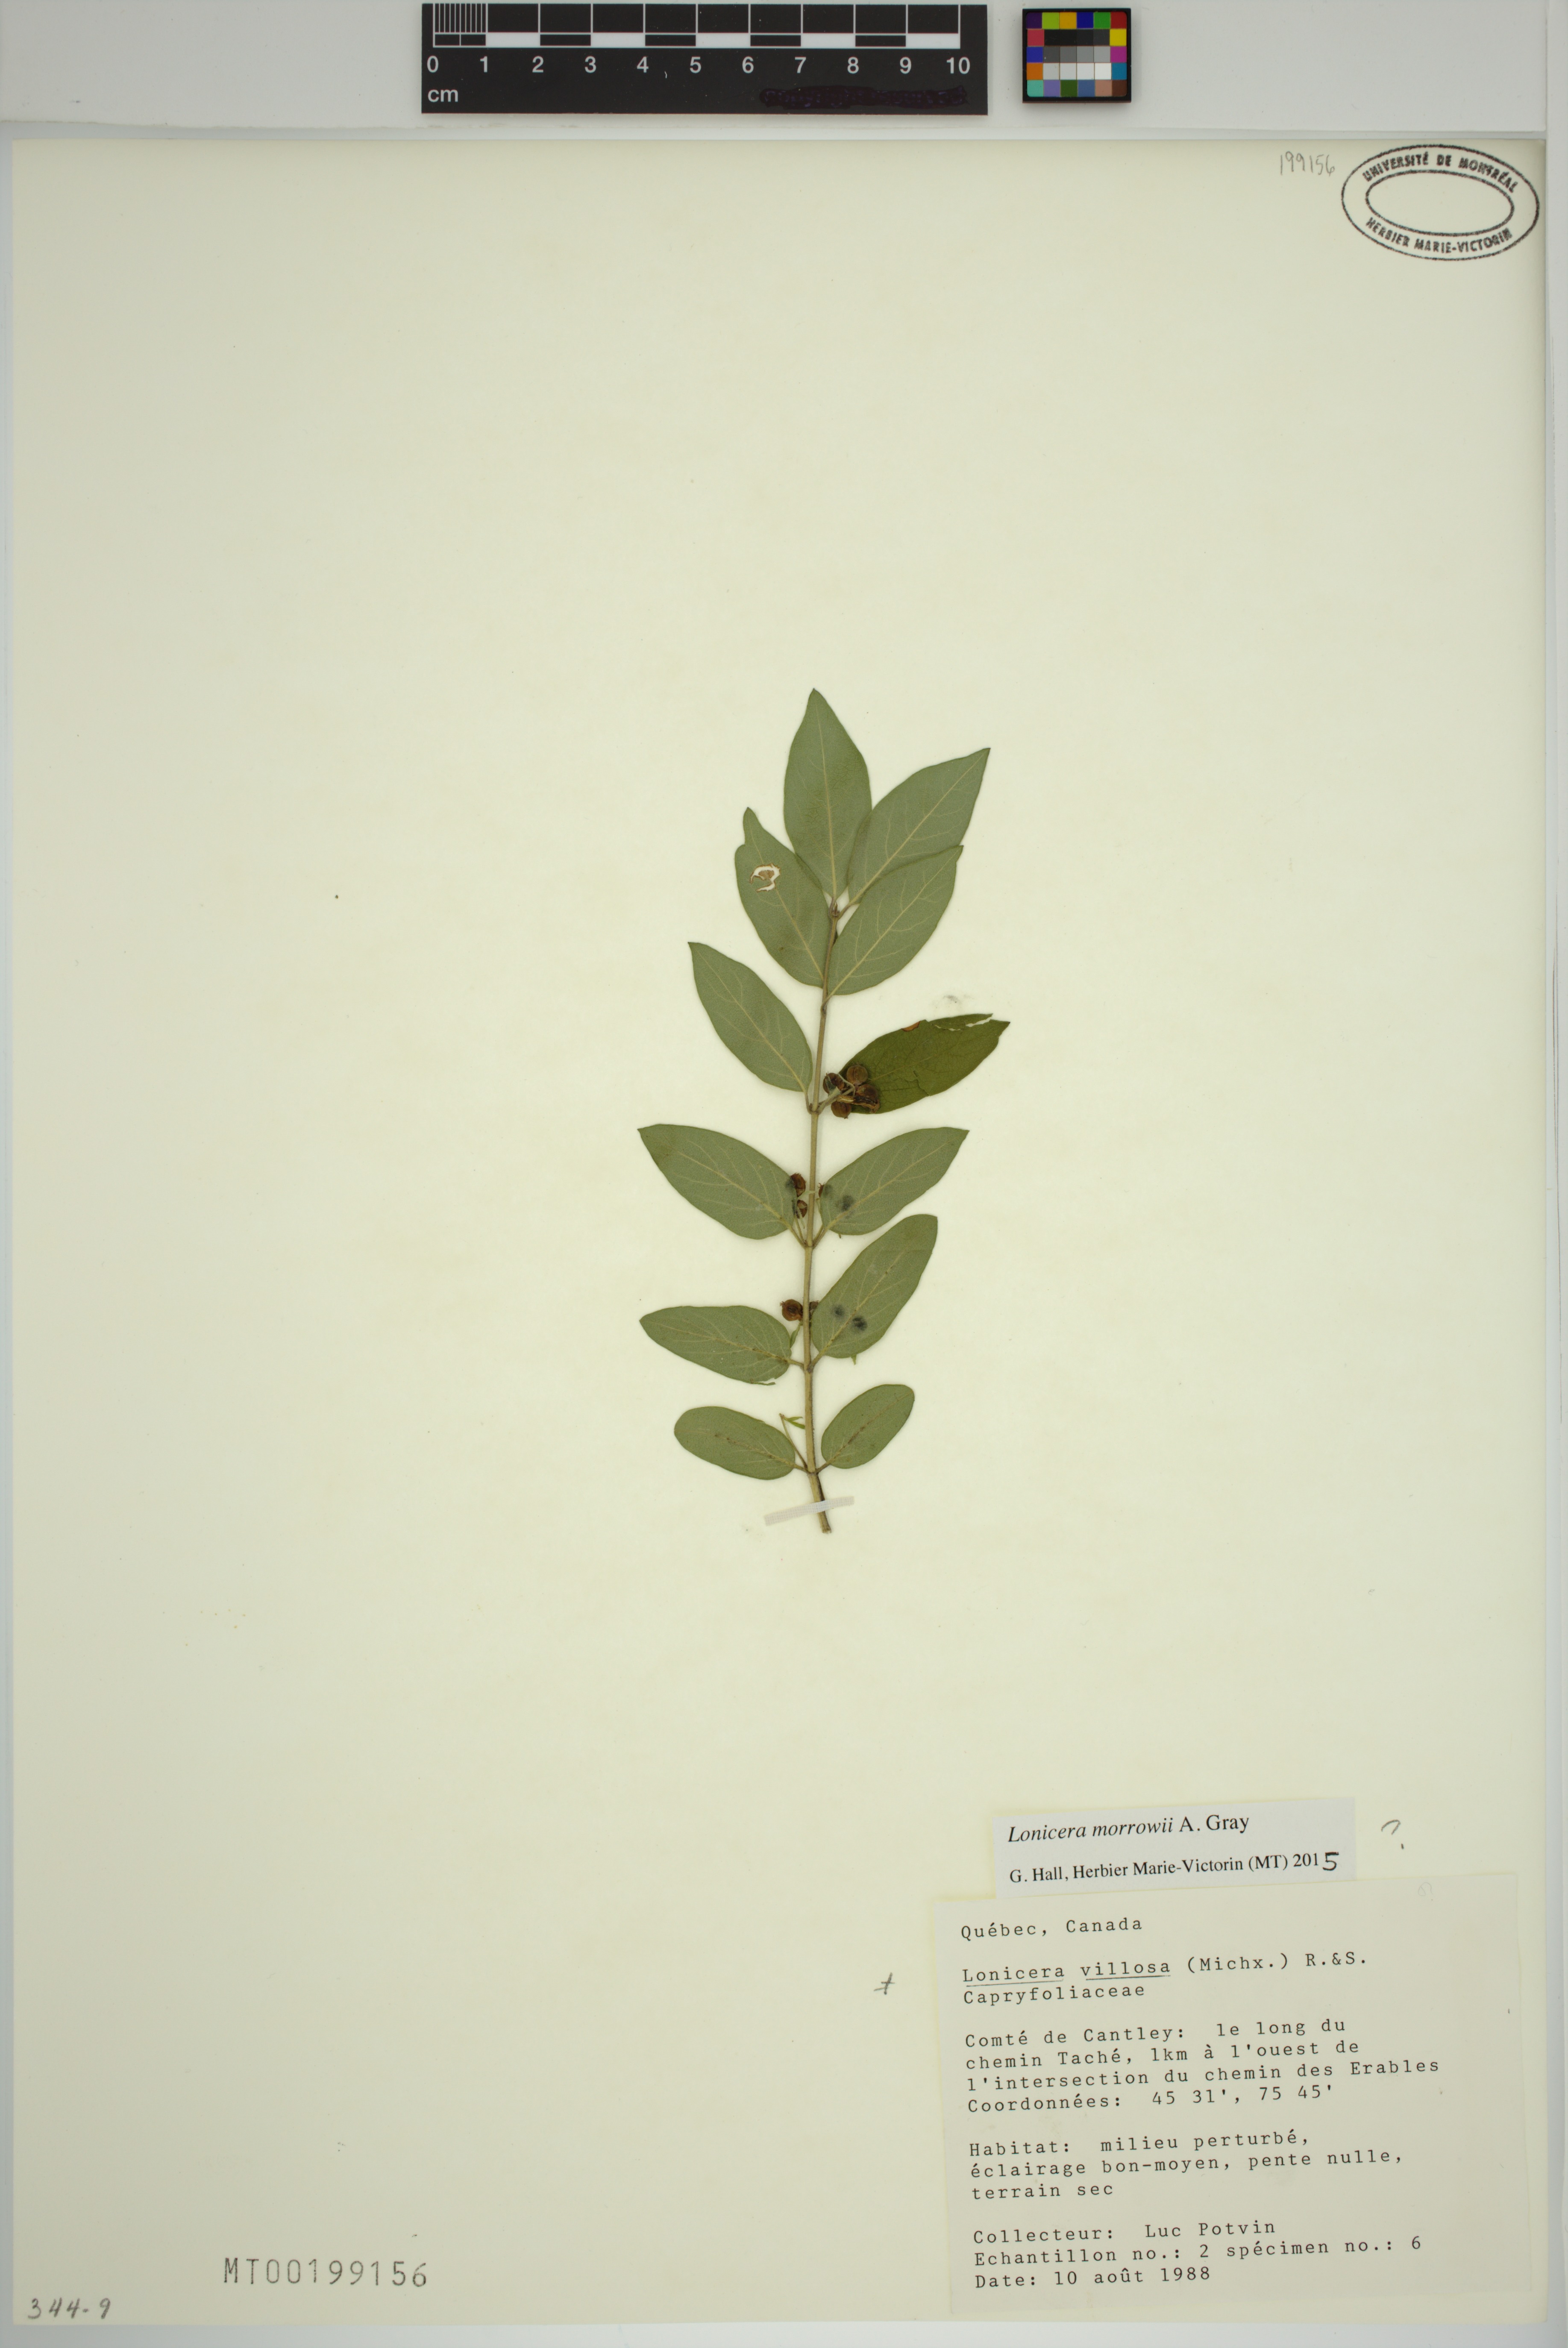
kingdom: Plantae
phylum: Tracheophyta
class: Magnoliopsida
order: Dipsacales
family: Caprifoliaceae
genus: Lonicera
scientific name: Lonicera tatarica
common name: Tatarian honeysuckle
